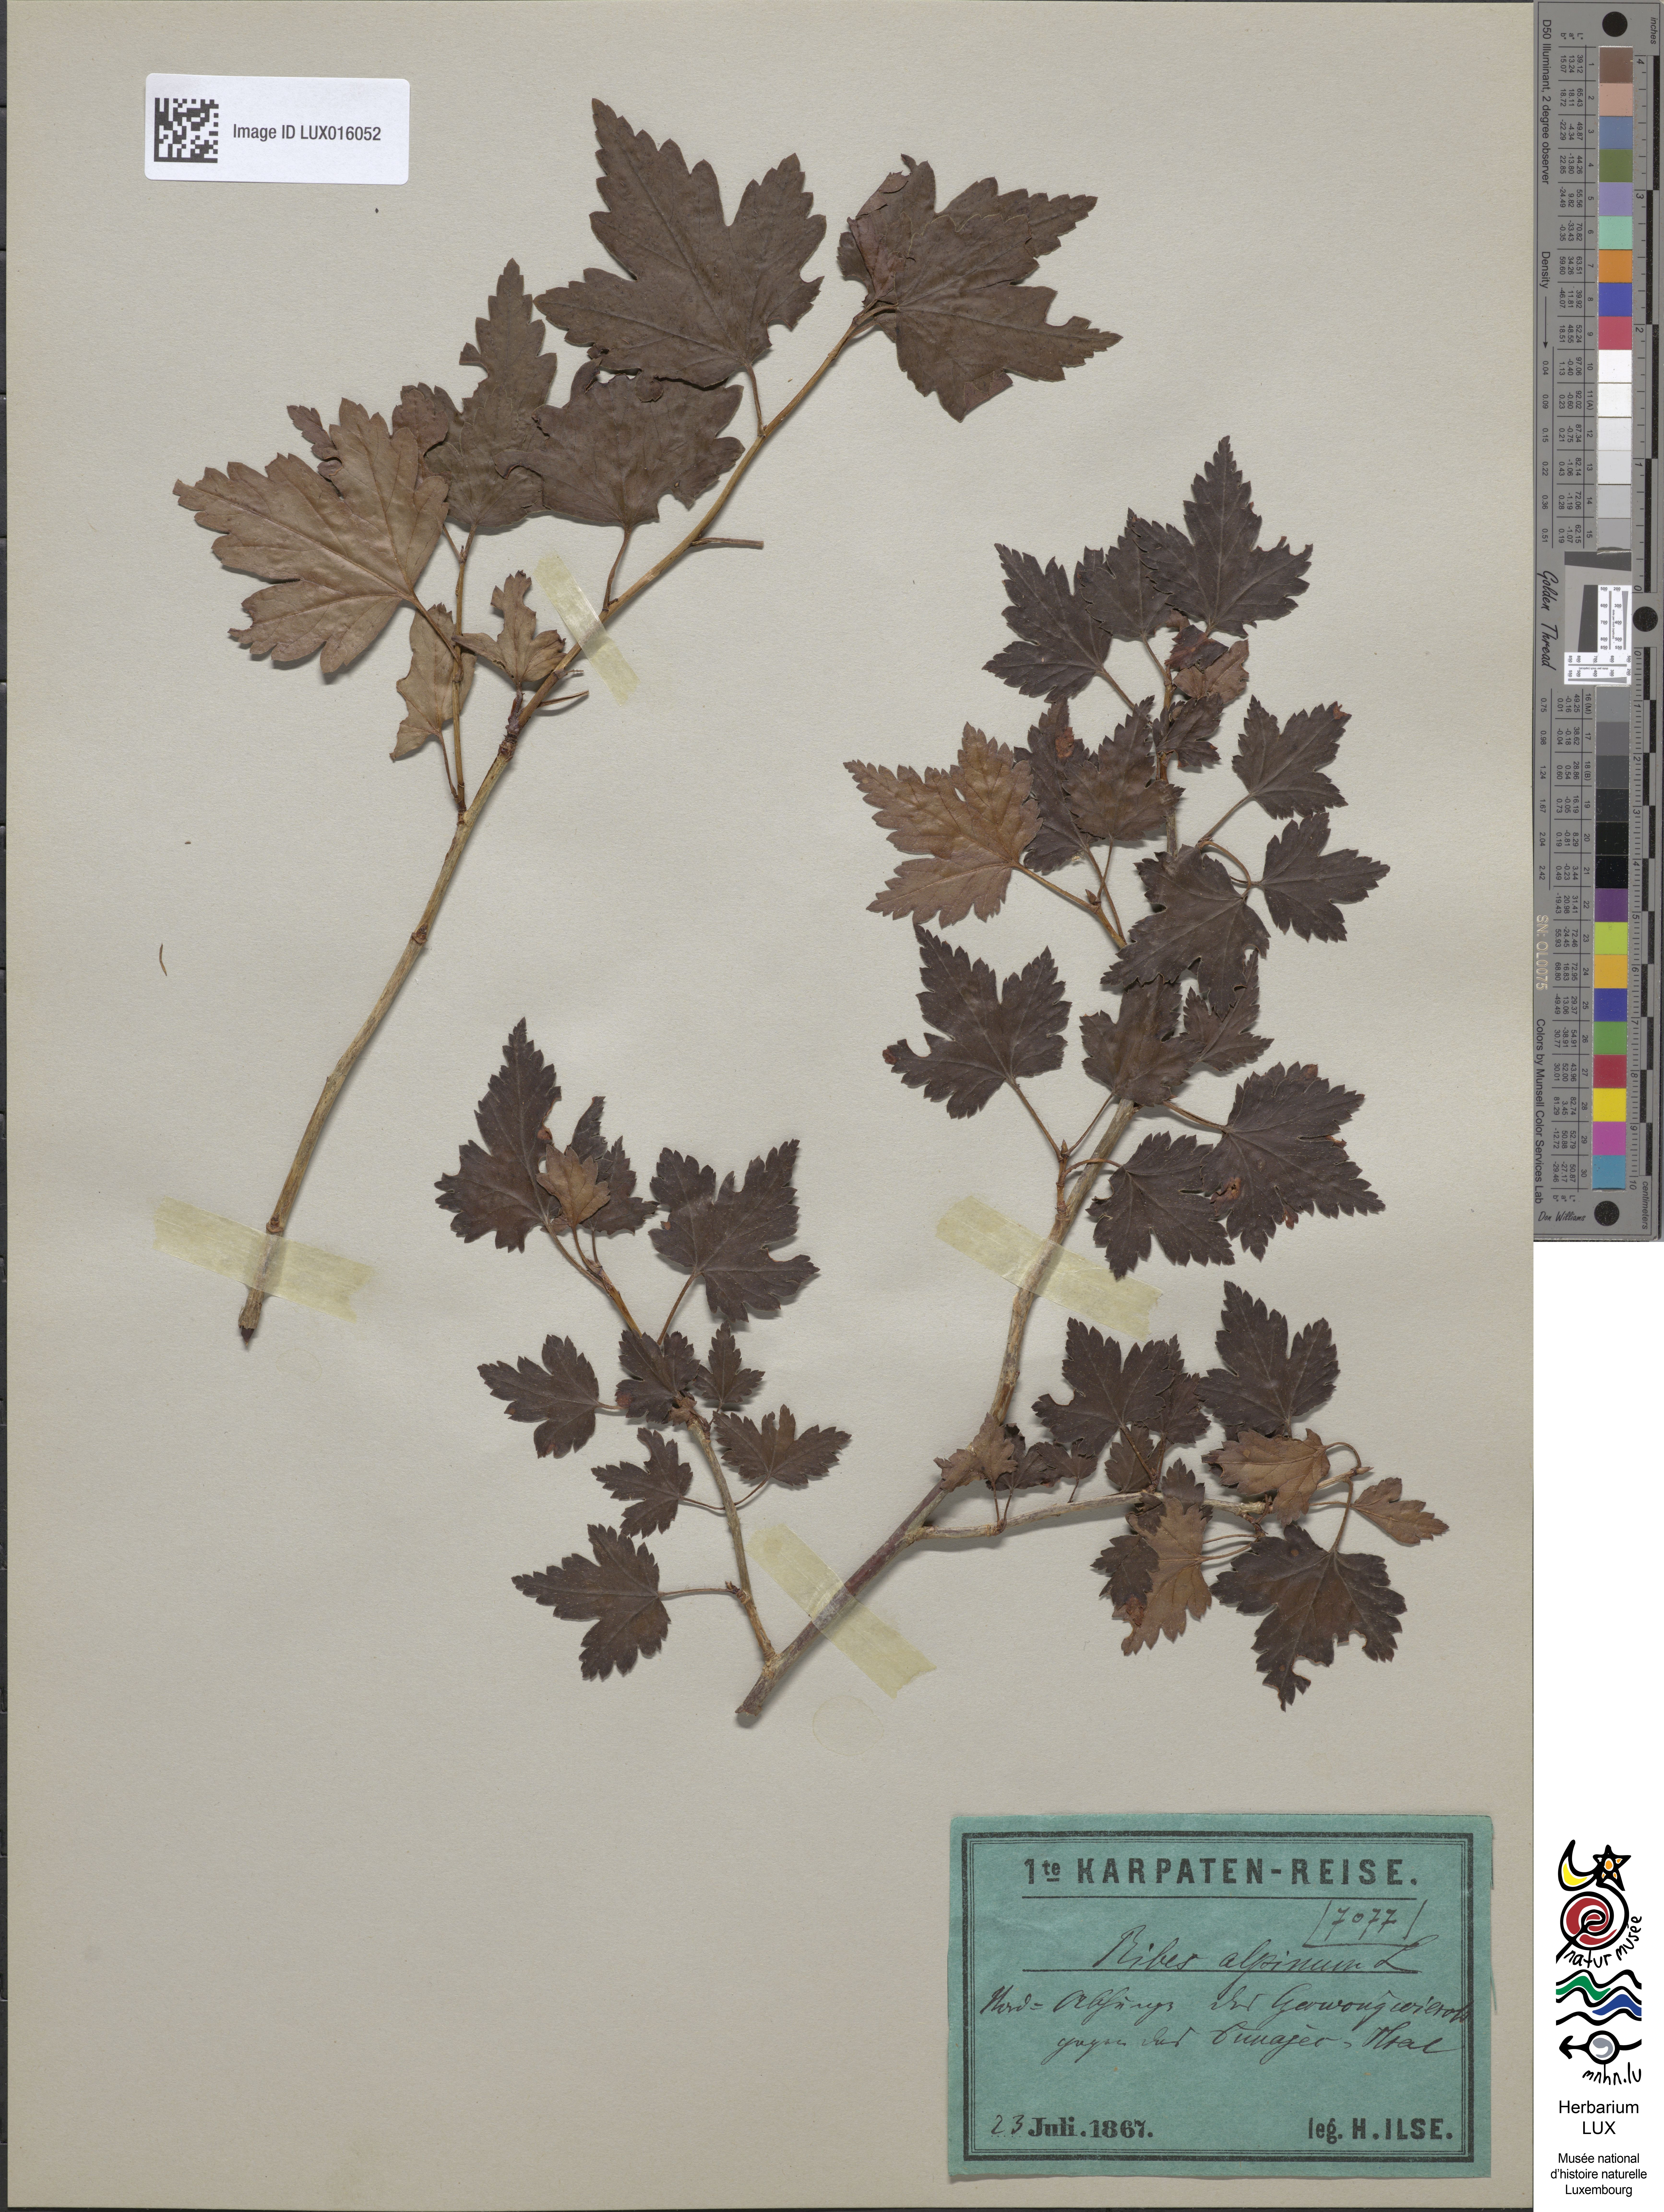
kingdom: Plantae
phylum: Tracheophyta
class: Magnoliopsida
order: Saxifragales
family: Grossulariaceae
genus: Ribes
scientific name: Ribes alpinum
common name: Alpine currant
